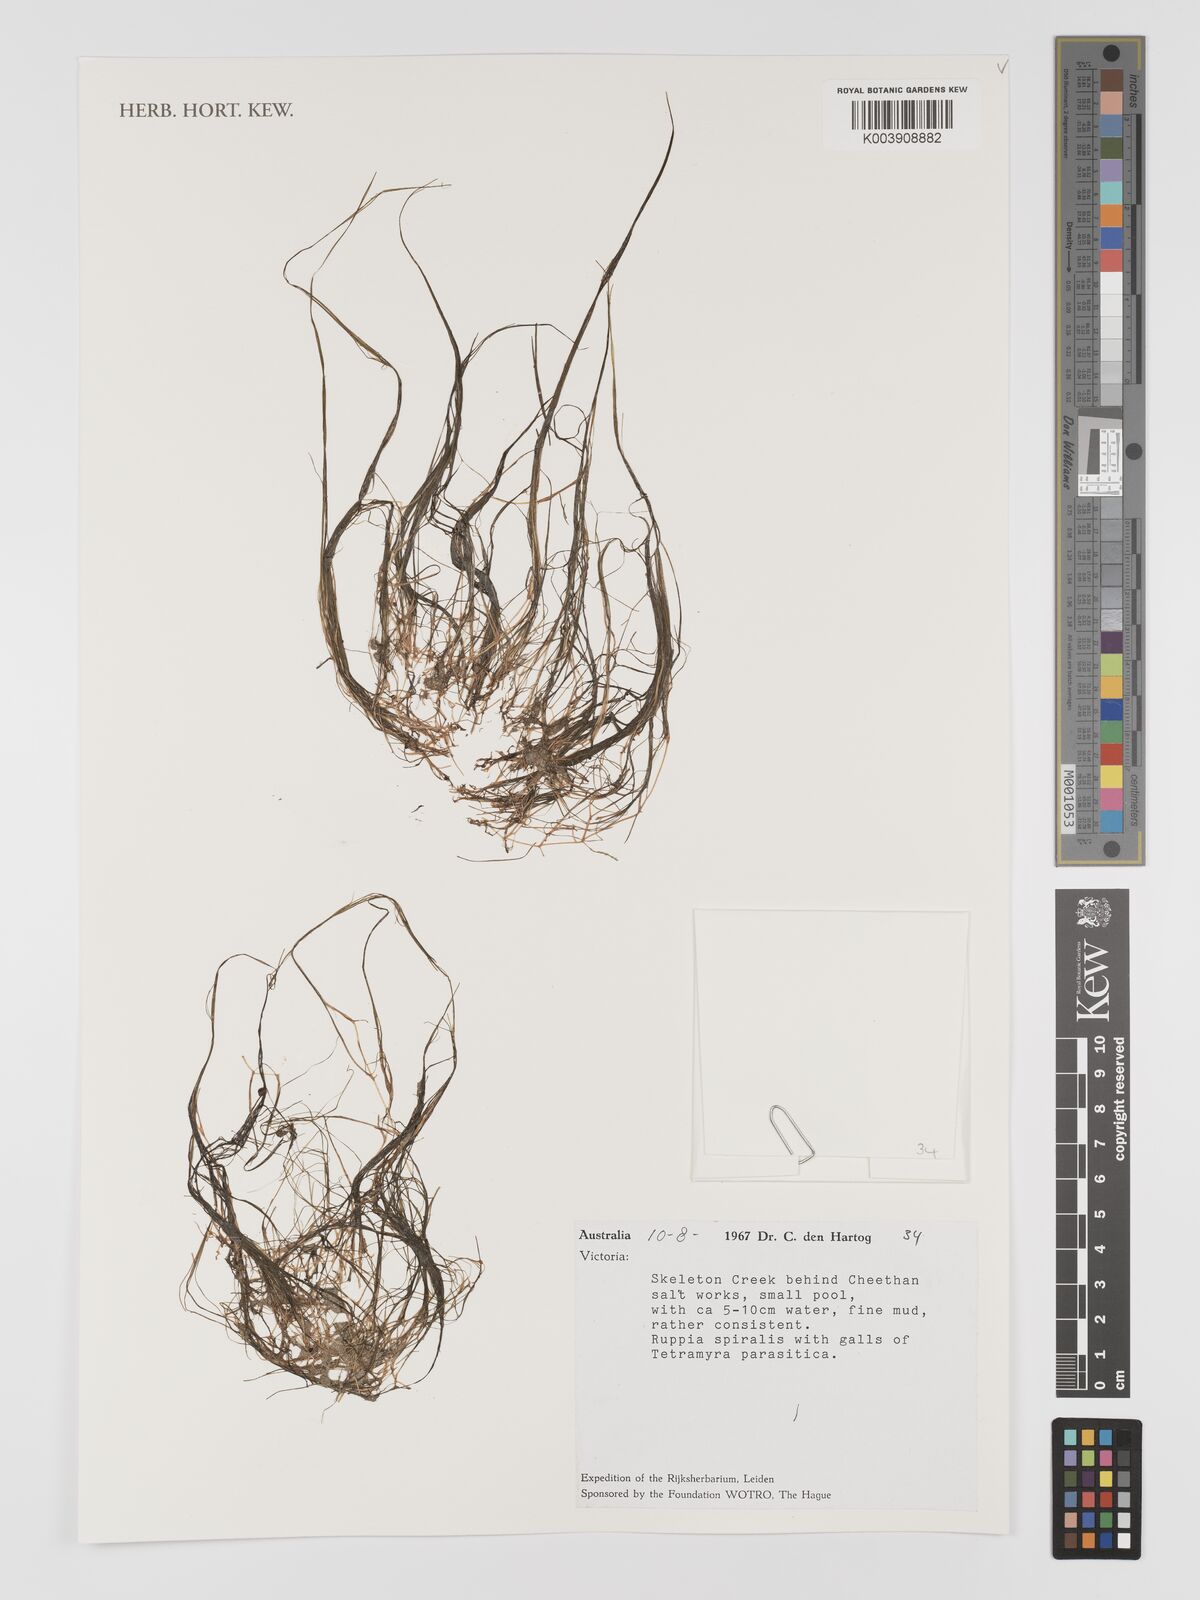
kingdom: Plantae
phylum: Tracheophyta
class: Liliopsida
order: Alismatales
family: Ruppiaceae
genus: Ruppia
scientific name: Ruppia
